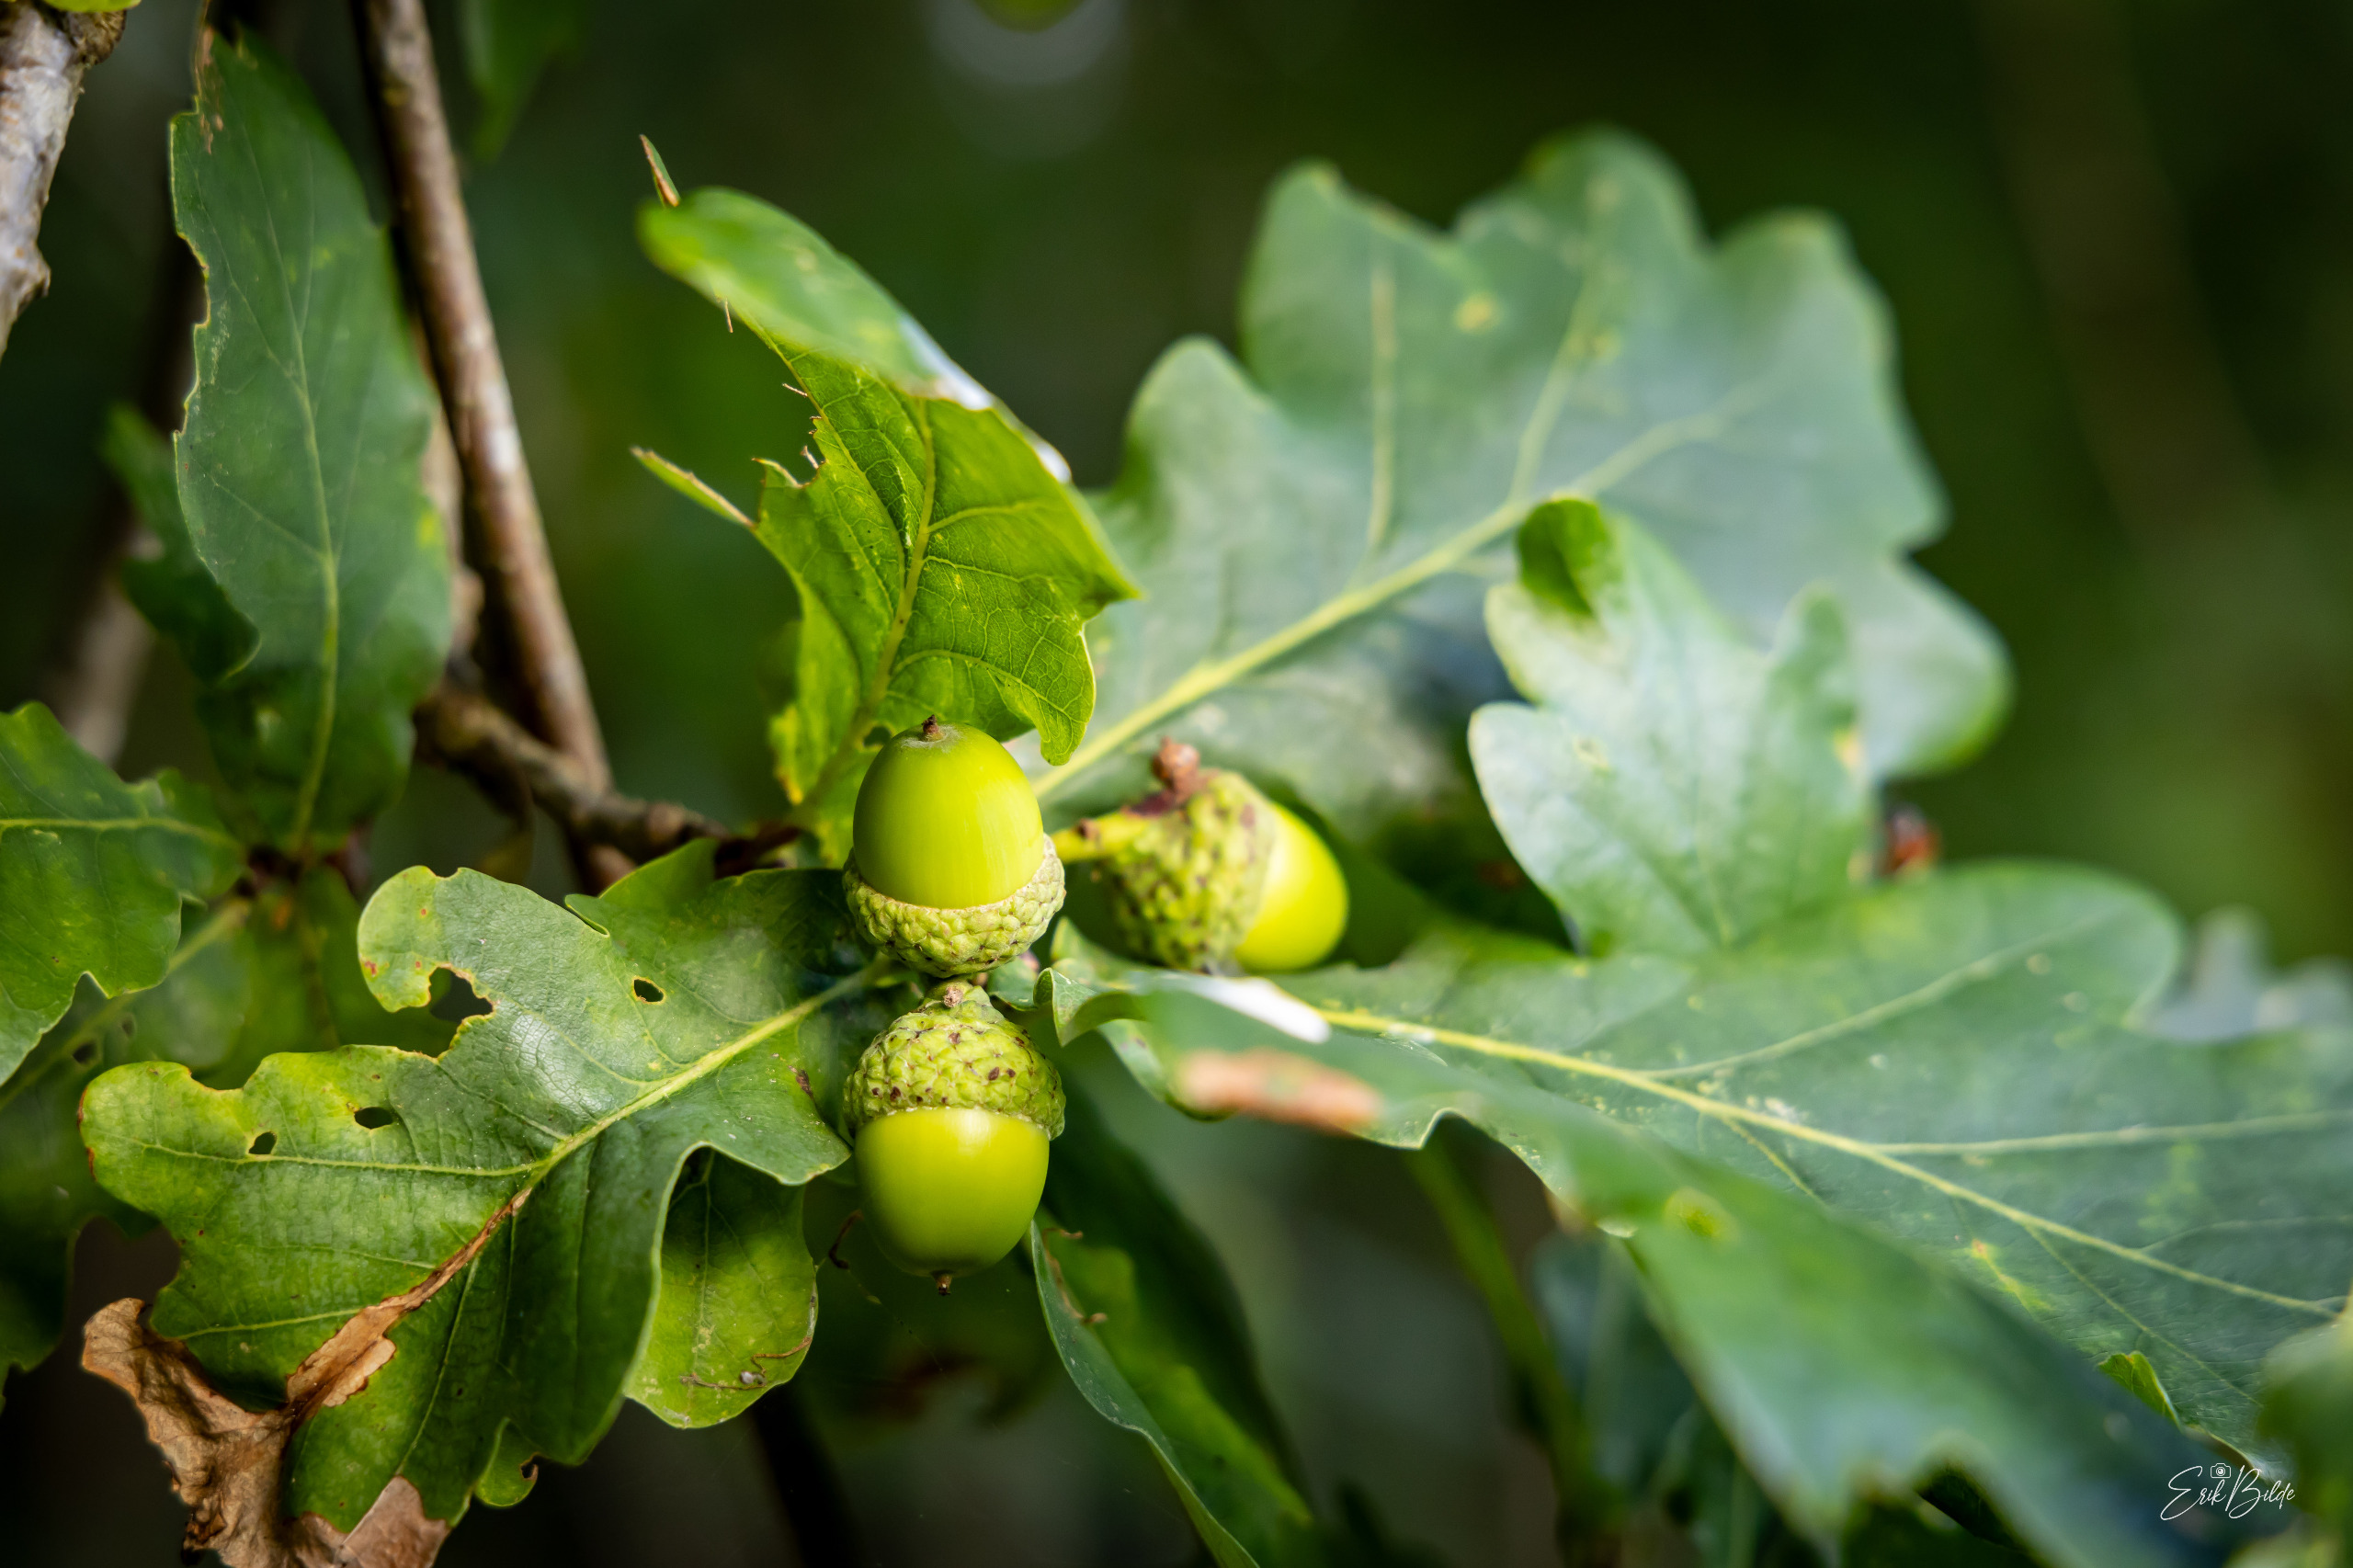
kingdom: Plantae
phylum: Tracheophyta
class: Magnoliopsida
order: Fagales
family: Fagaceae
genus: Quercus
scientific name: Quercus robur
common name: Stilk-eg/almindelig eg
